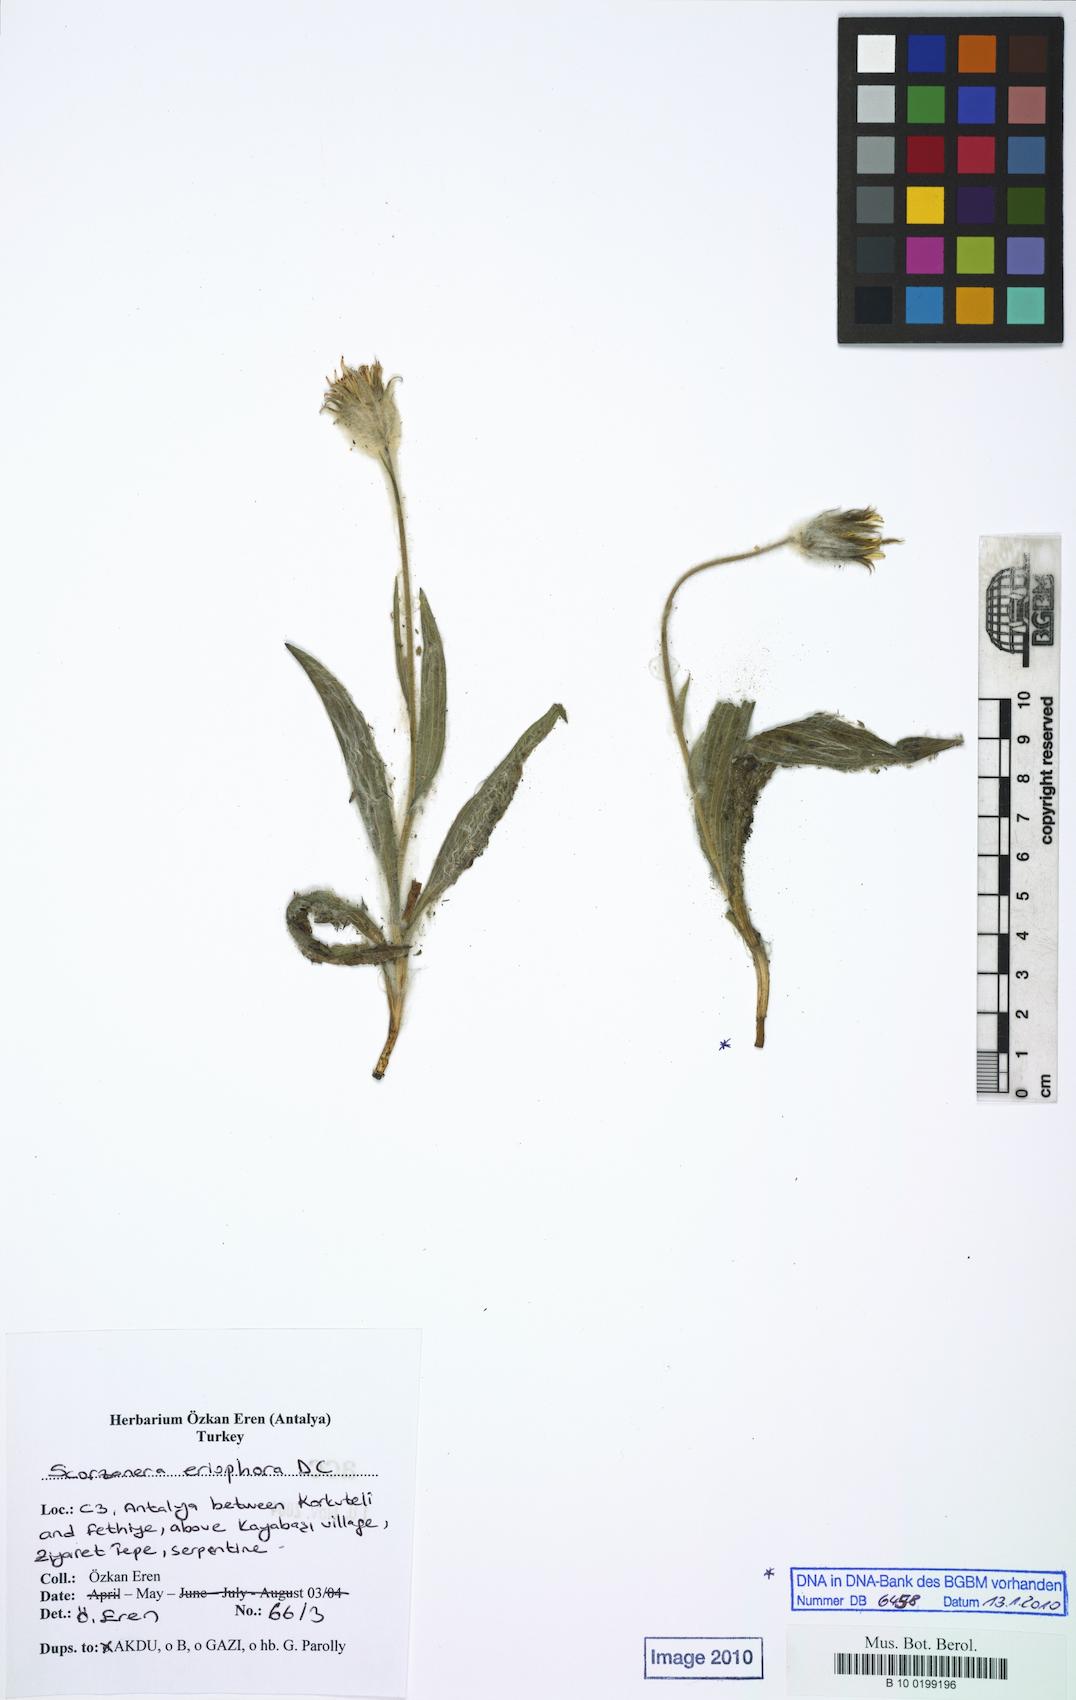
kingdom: Plantae
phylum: Tracheophyta
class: Magnoliopsida
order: Asterales
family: Asteraceae
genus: Bocquetia
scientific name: Bocquetia eriophora
